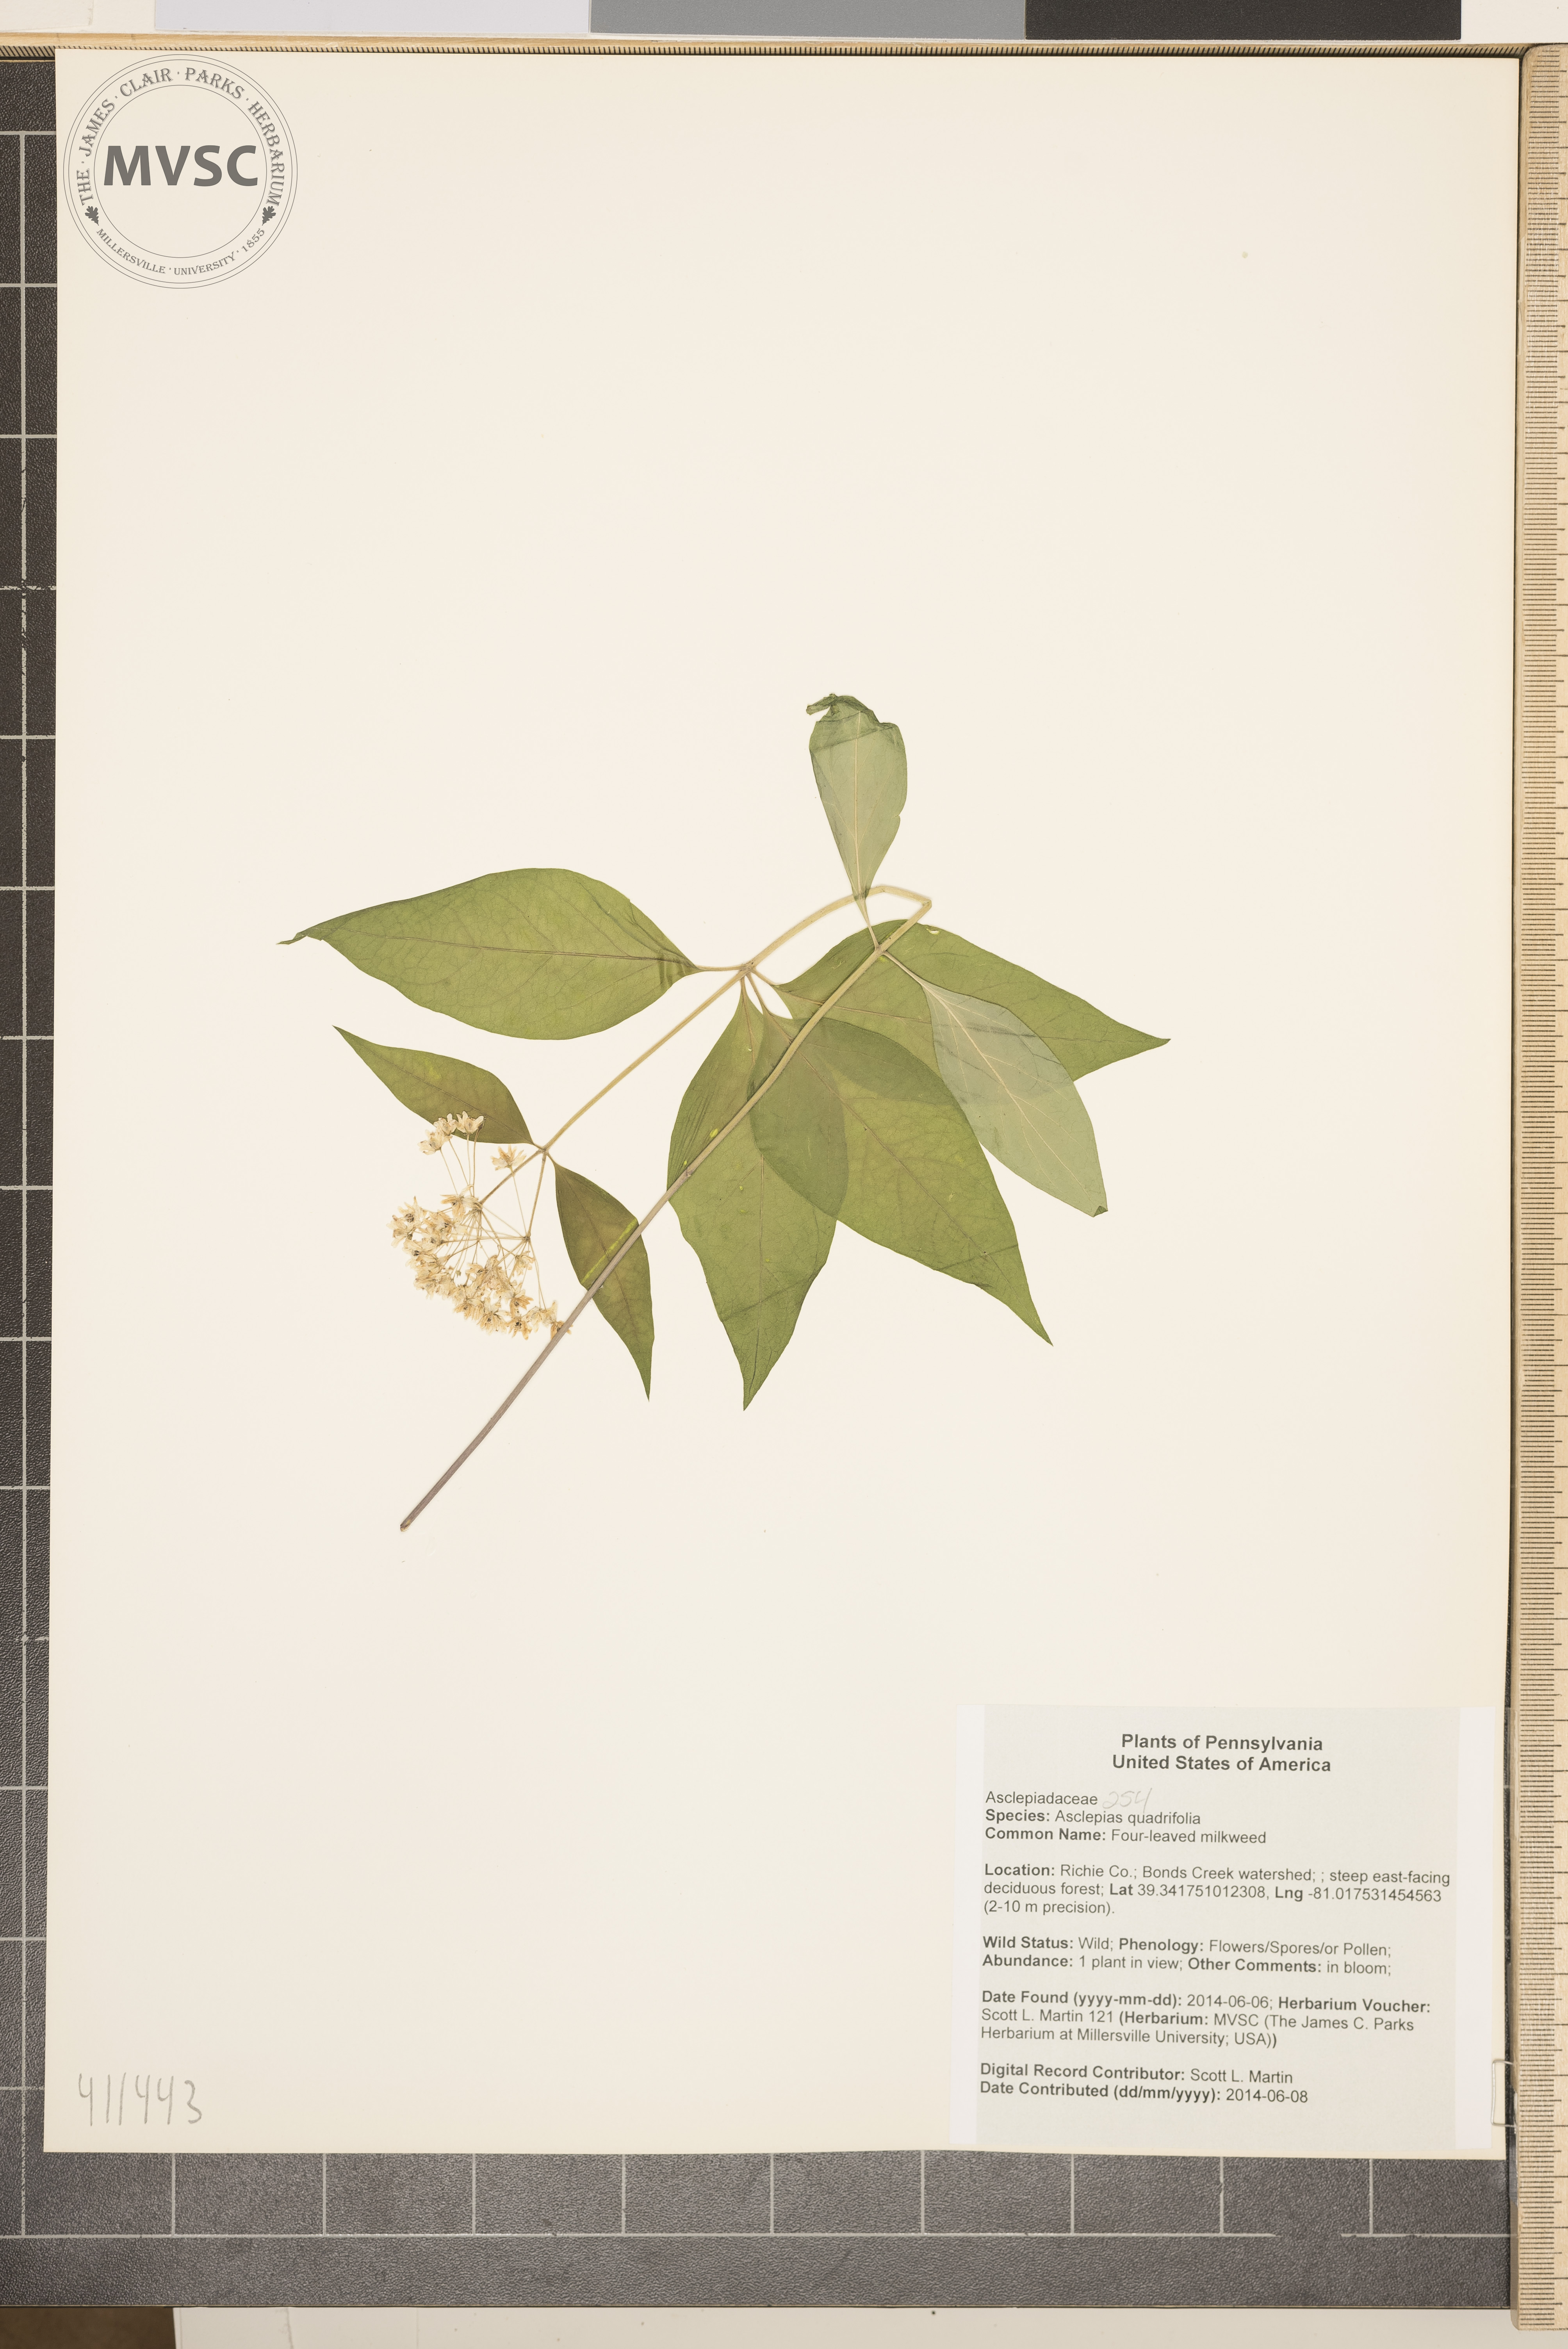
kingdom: Plantae
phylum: Tracheophyta
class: Magnoliopsida
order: Gentianales
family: Apocynaceae
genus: Asclepias
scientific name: Asclepias quadrifolia
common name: Four-leaved milkweed
